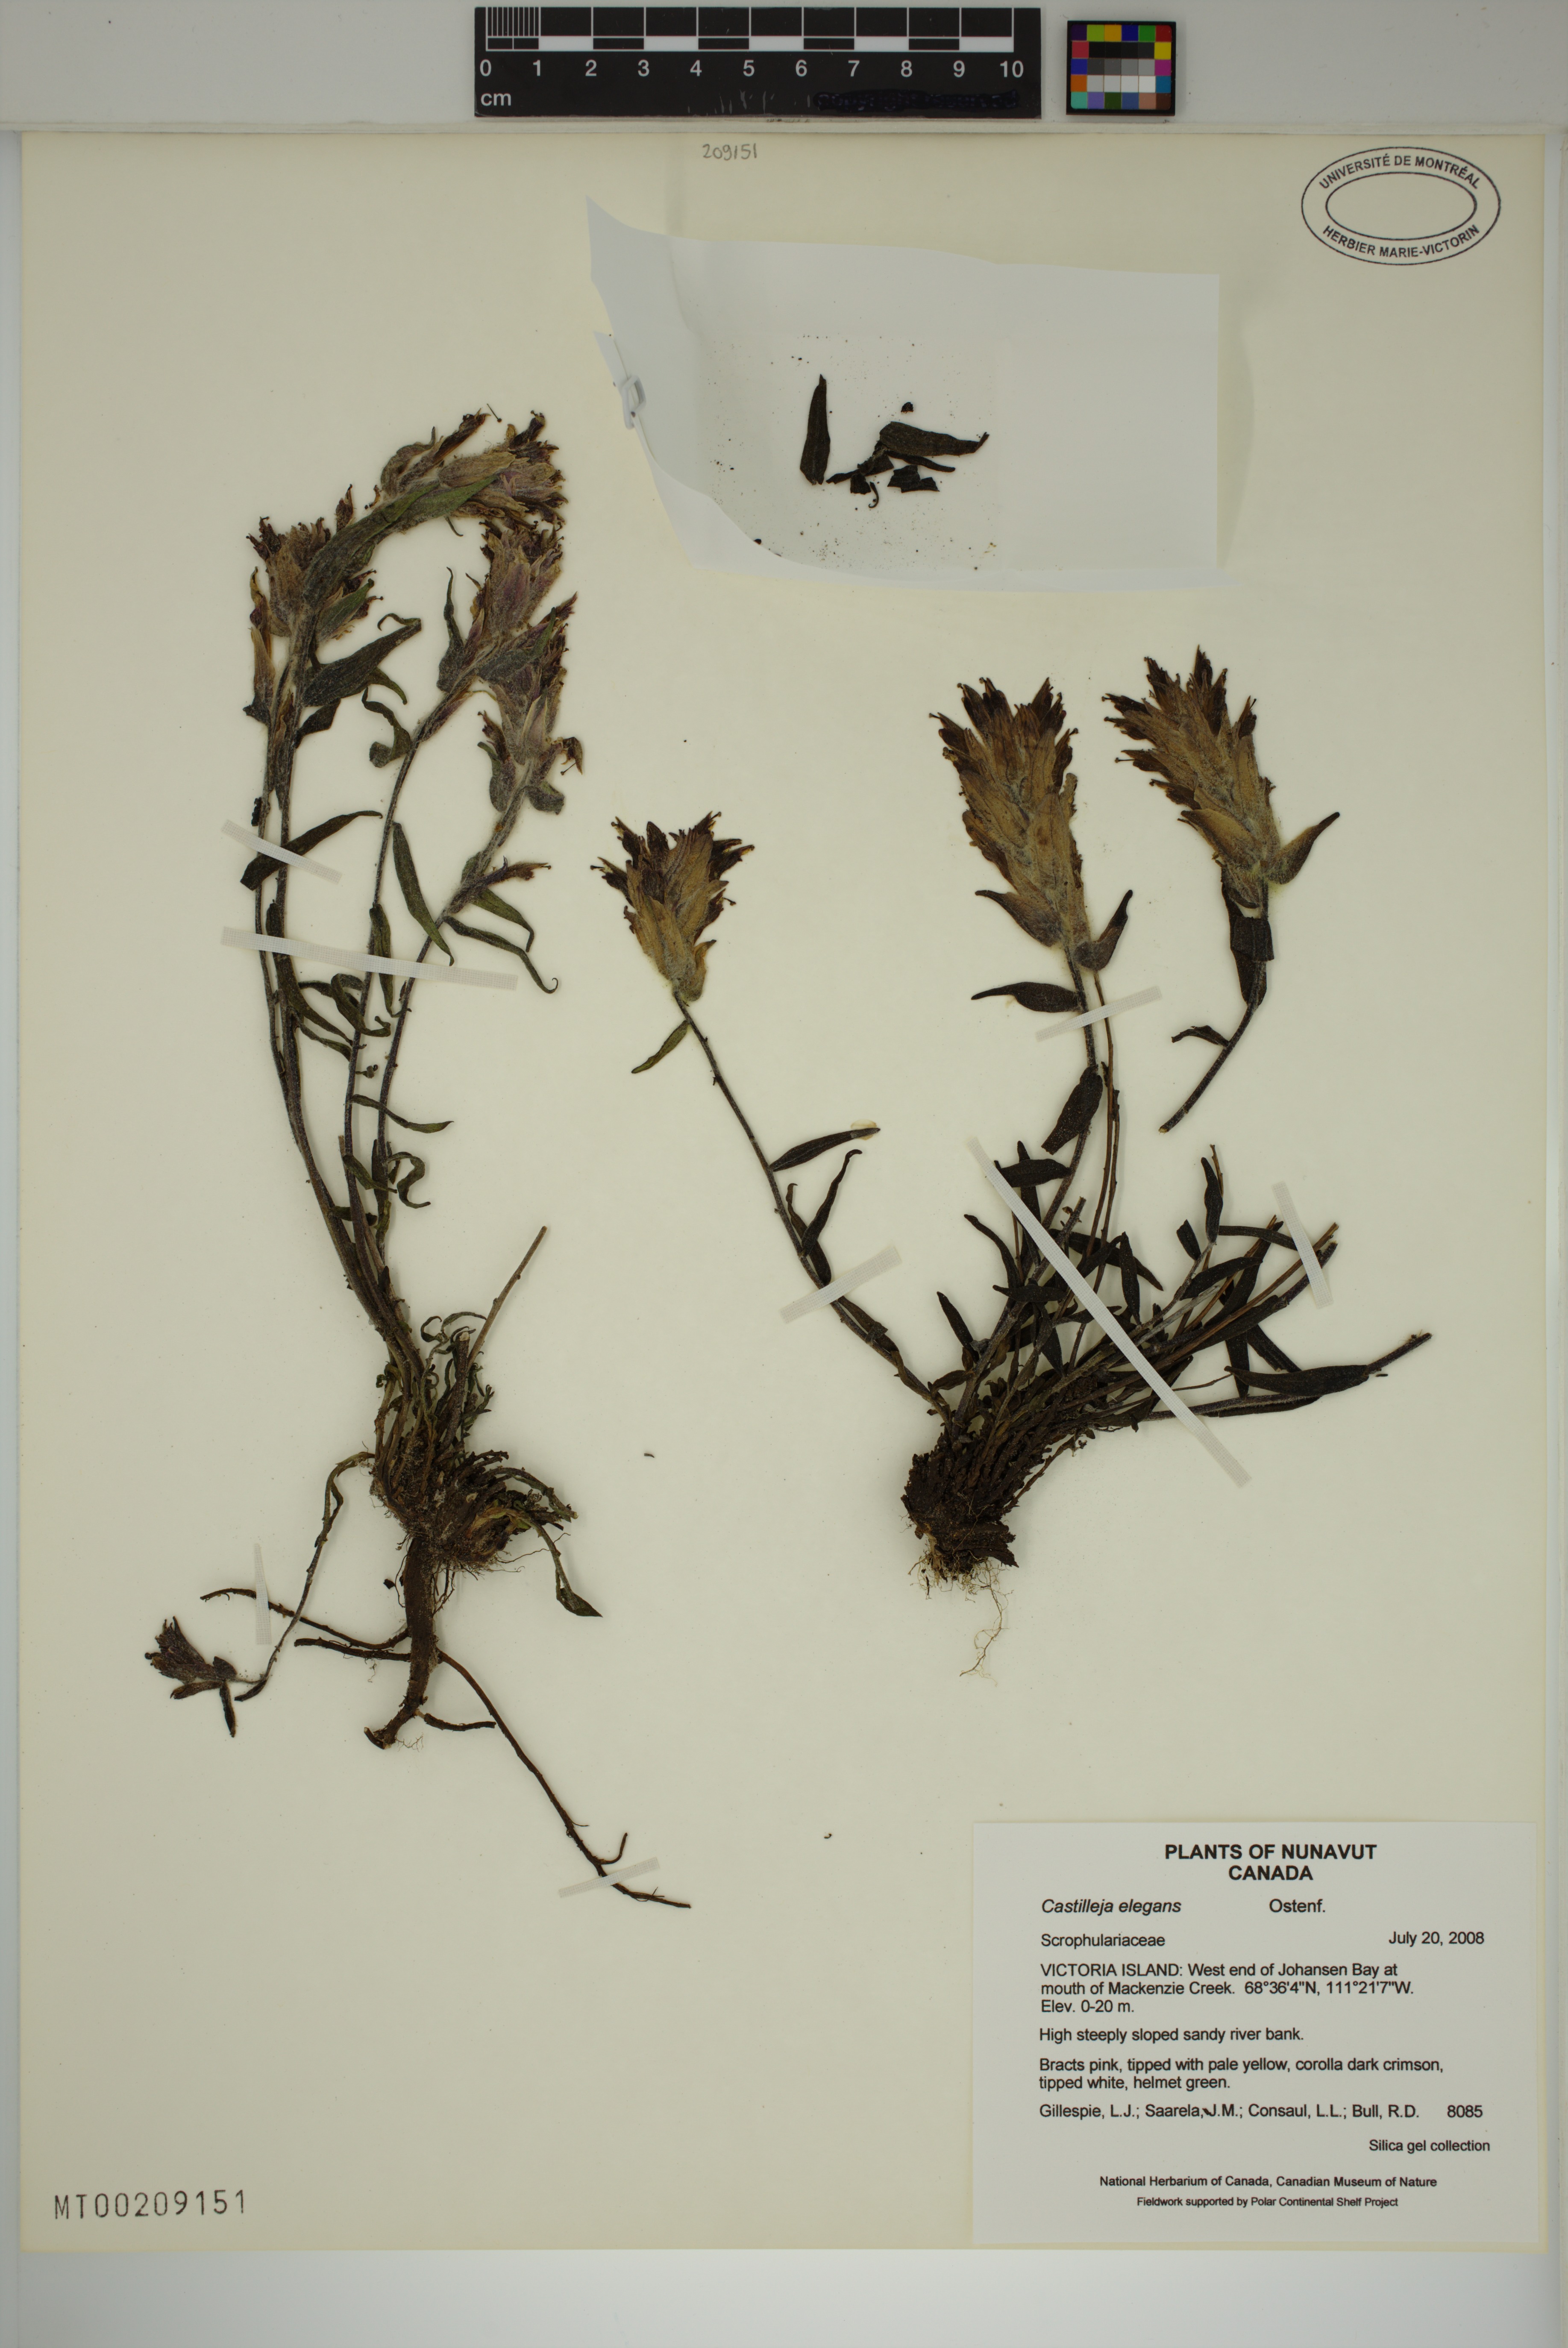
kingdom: Plantae
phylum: Tracheophyta
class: Magnoliopsida
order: Lamiales
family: Orobanchaceae
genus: Castilleja
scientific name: Castilleja elegans
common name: Elegant paintbrush
